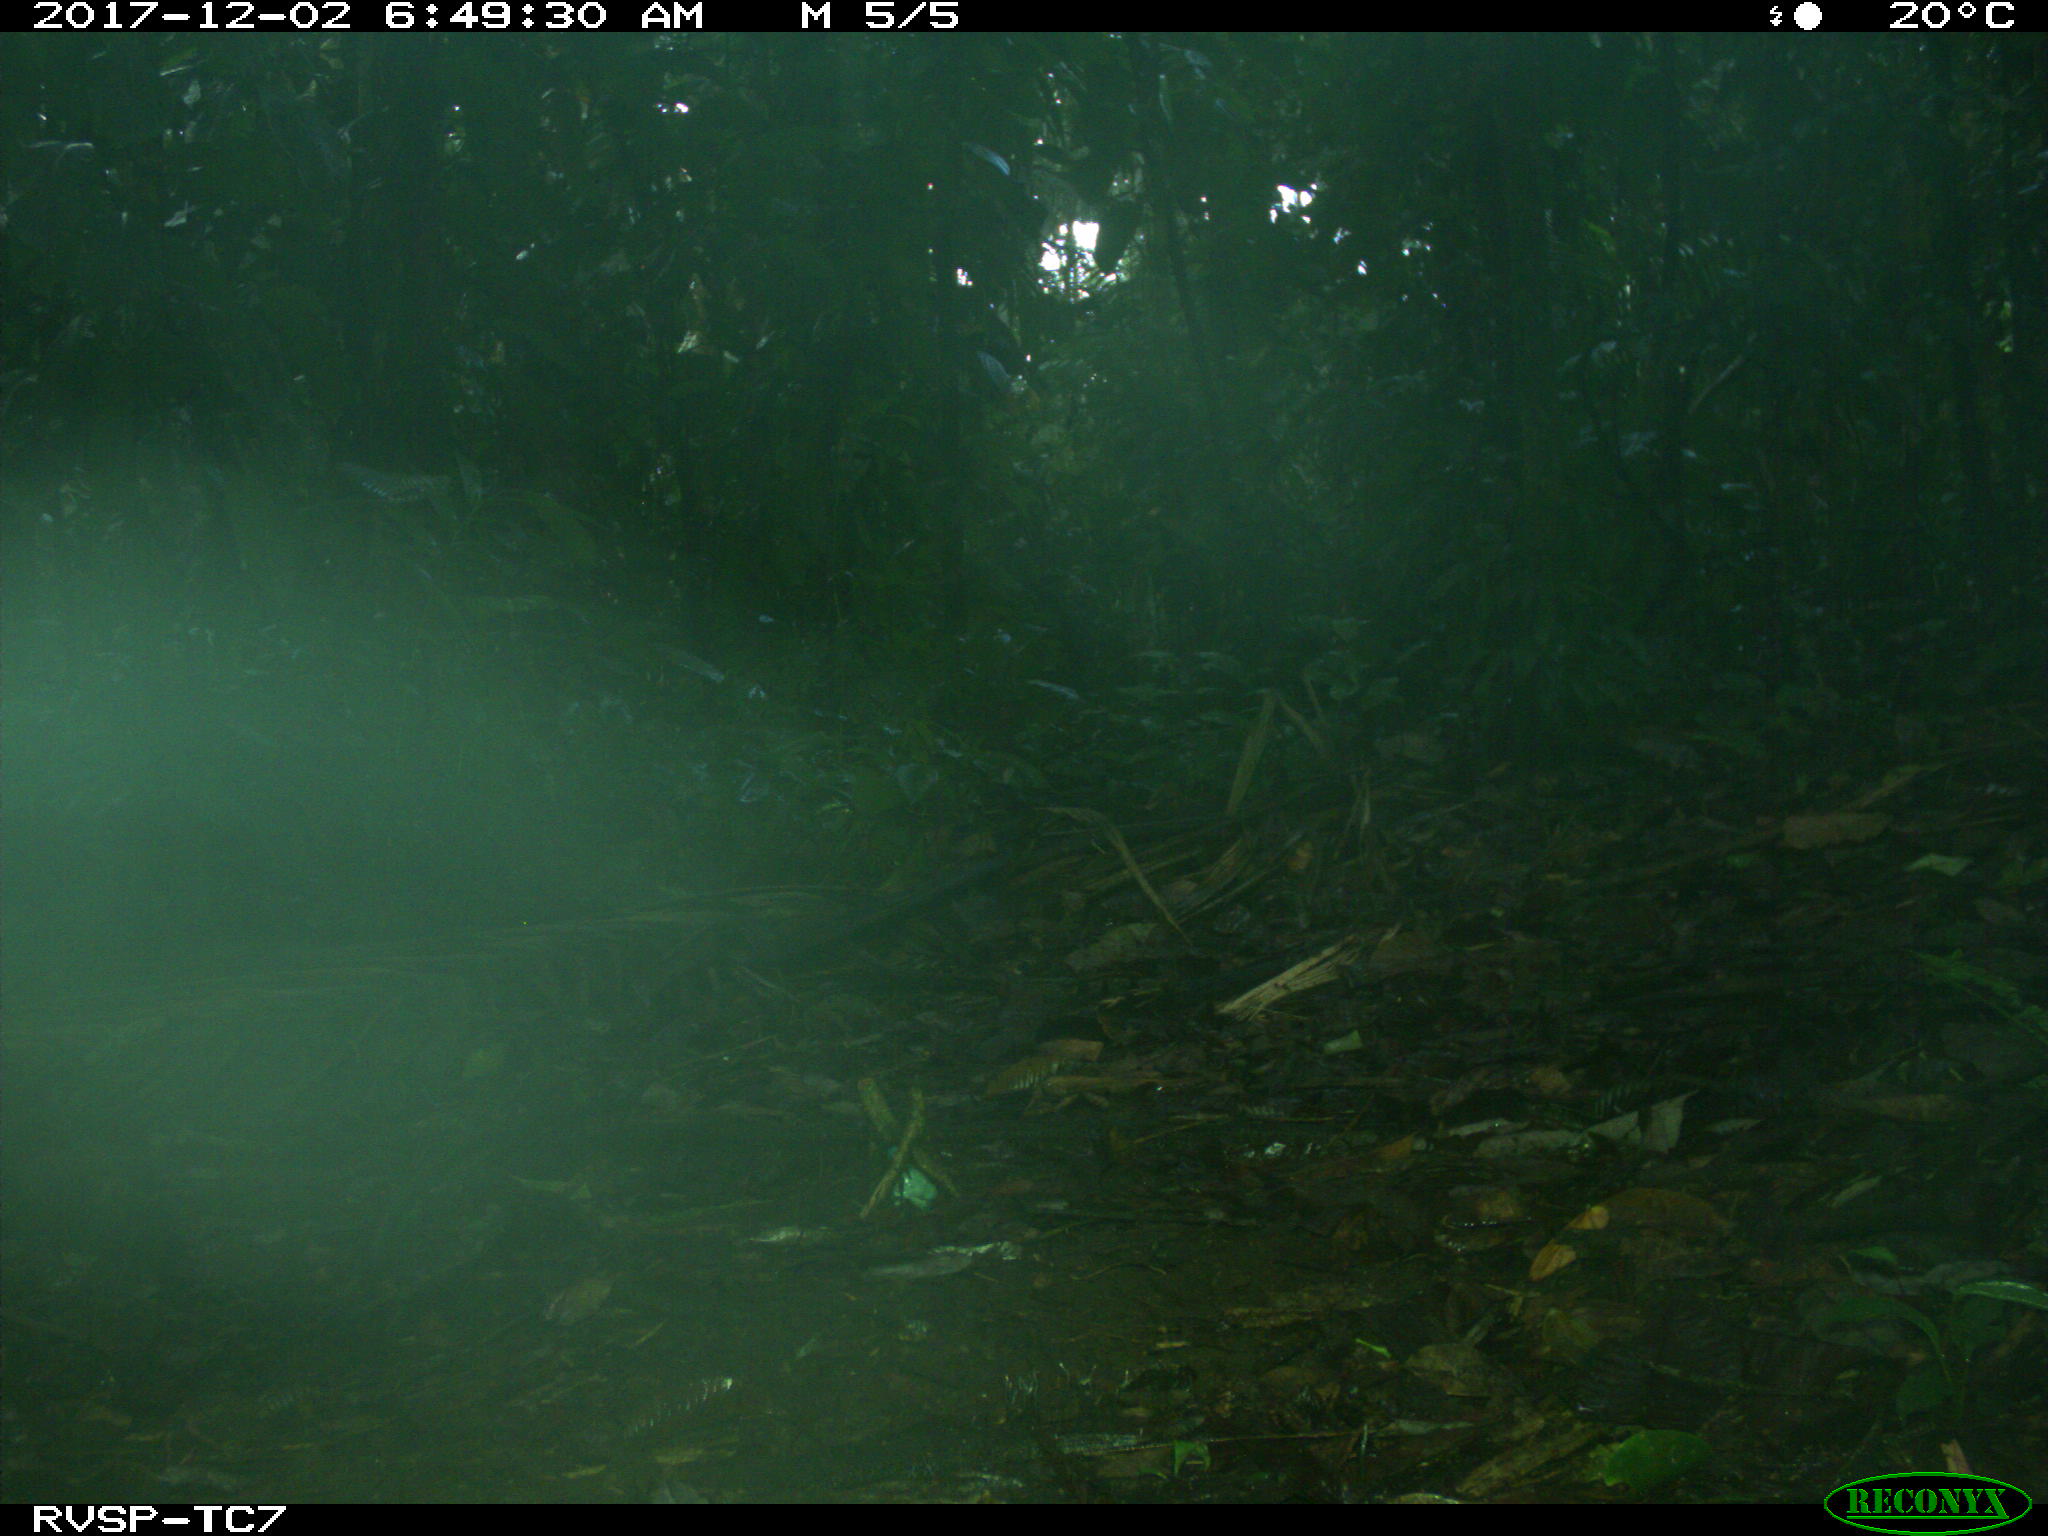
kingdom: Animalia
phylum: Chordata
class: Mammalia
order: Artiodactyla
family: Tayassuidae
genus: Tayassu
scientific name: Tayassu pecari
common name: White-lipped peccary
